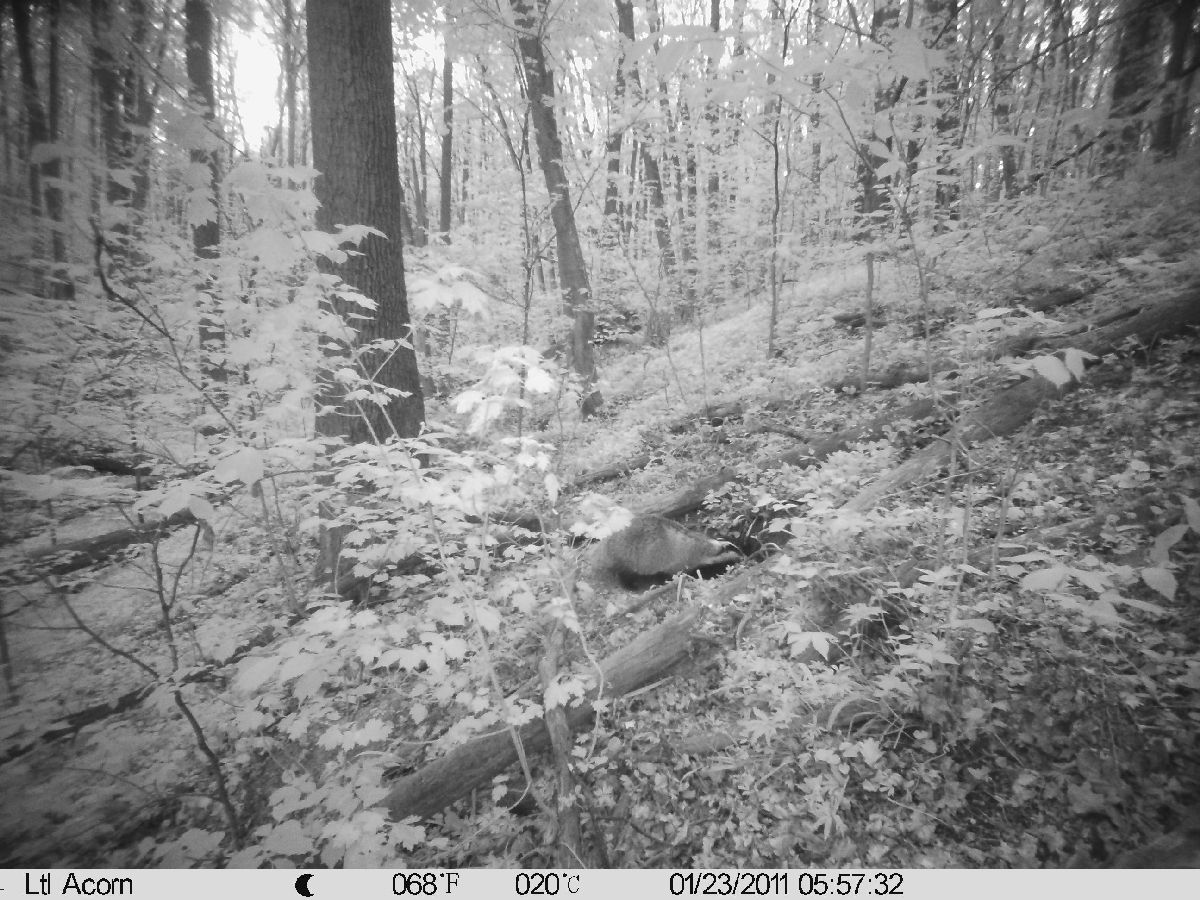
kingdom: Animalia
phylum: Chordata
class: Mammalia
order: Carnivora
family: Mustelidae
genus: Meles
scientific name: Meles meles
